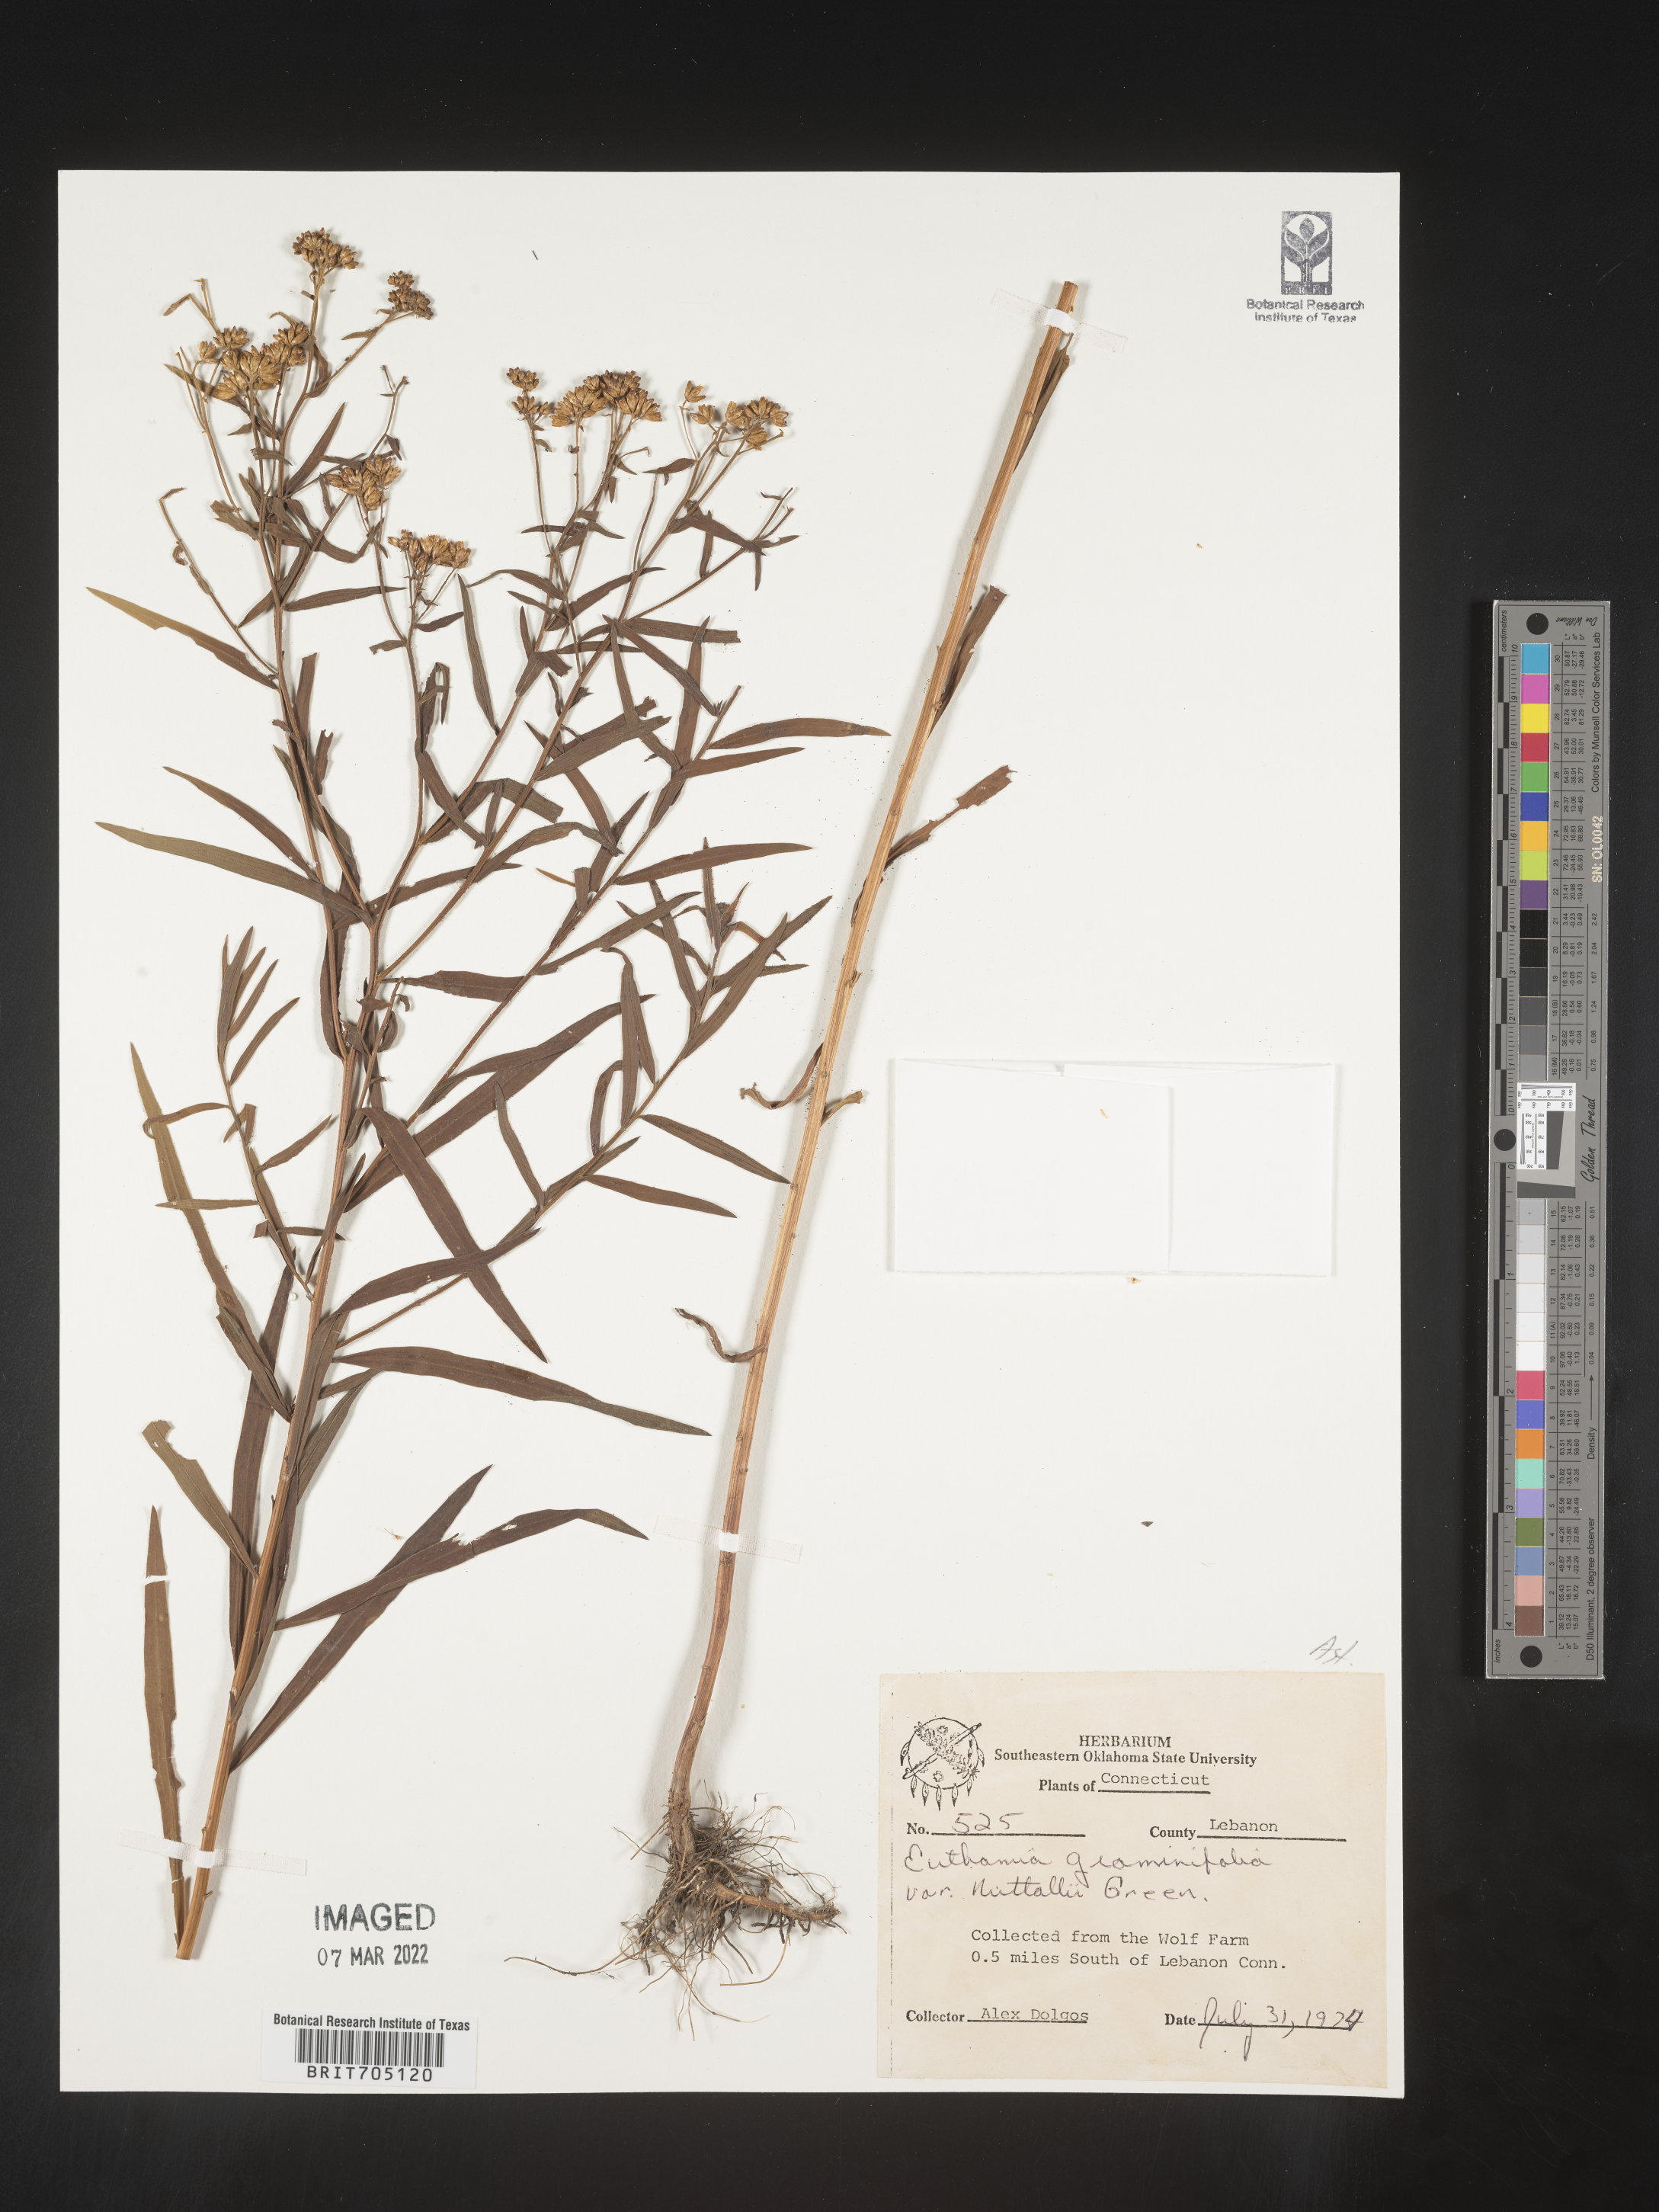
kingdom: Plantae
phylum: Tracheophyta
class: Magnoliopsida
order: Asterales
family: Asteraceae
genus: Euthamia
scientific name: Euthamia graminifolia
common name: Common goldentop
